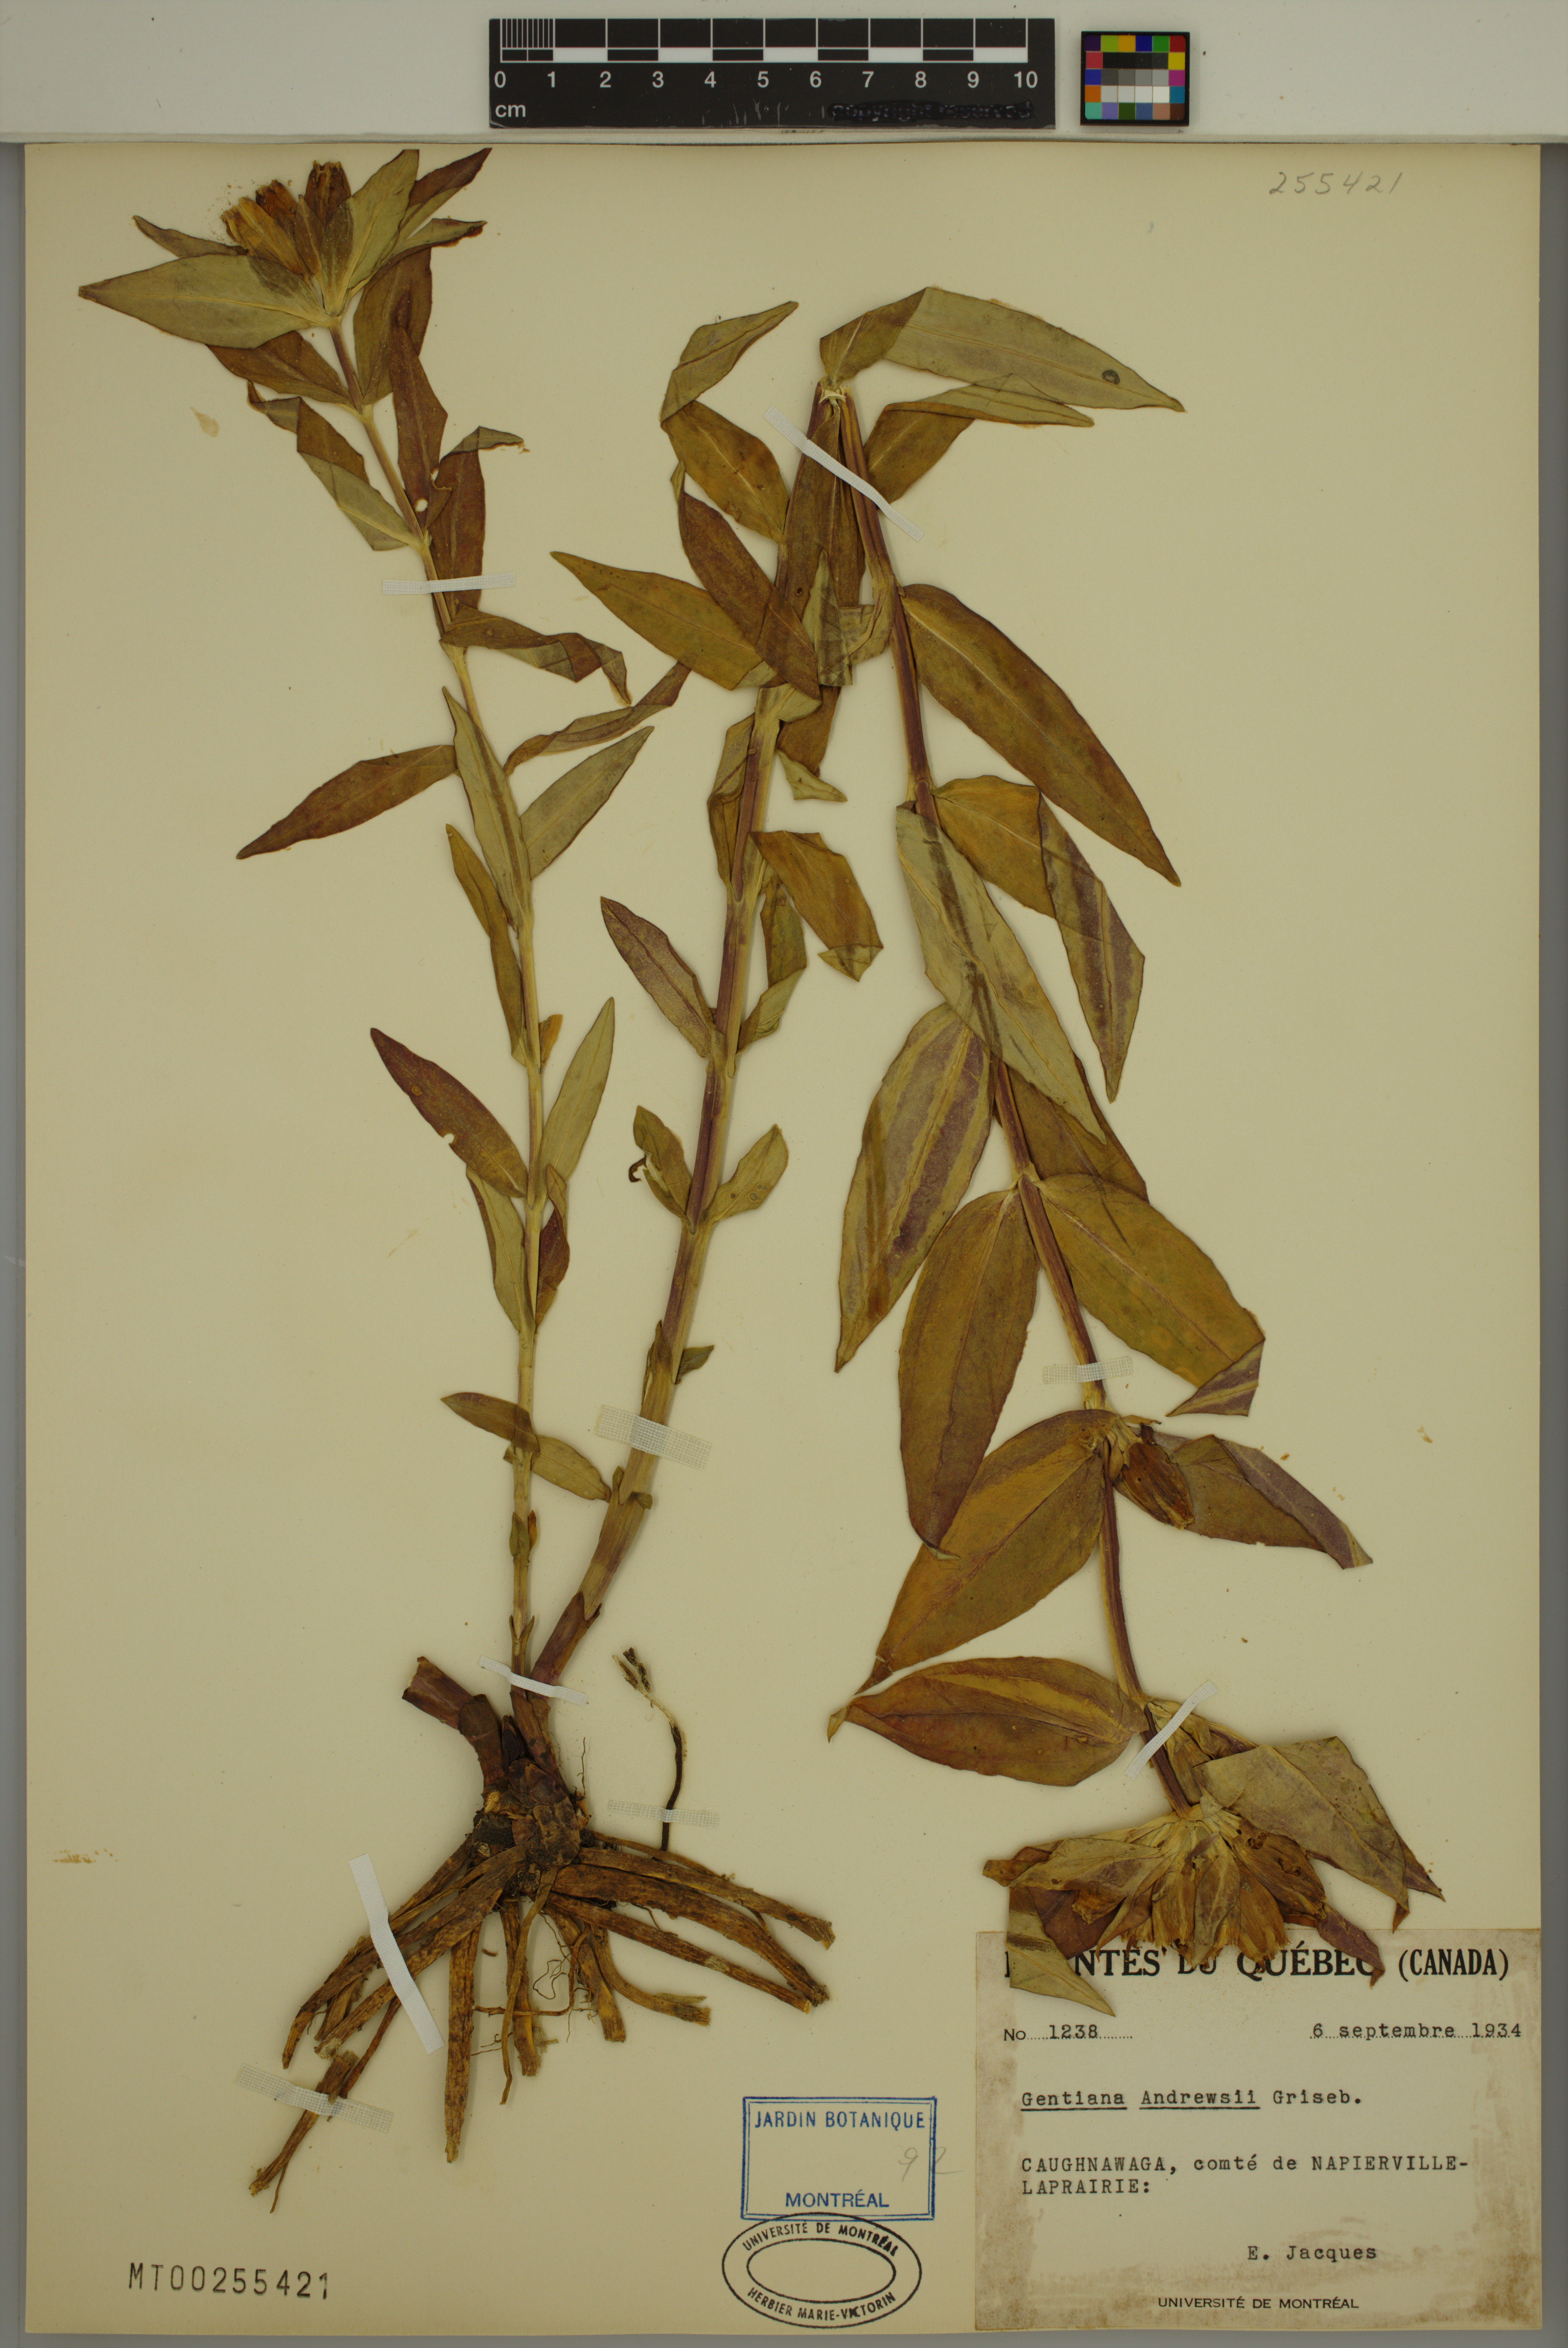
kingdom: Plantae
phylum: Tracheophyta
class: Magnoliopsida
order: Gentianales
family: Gentianaceae
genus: Gentiana
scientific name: Gentiana andrewsii
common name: Bottle gentian
